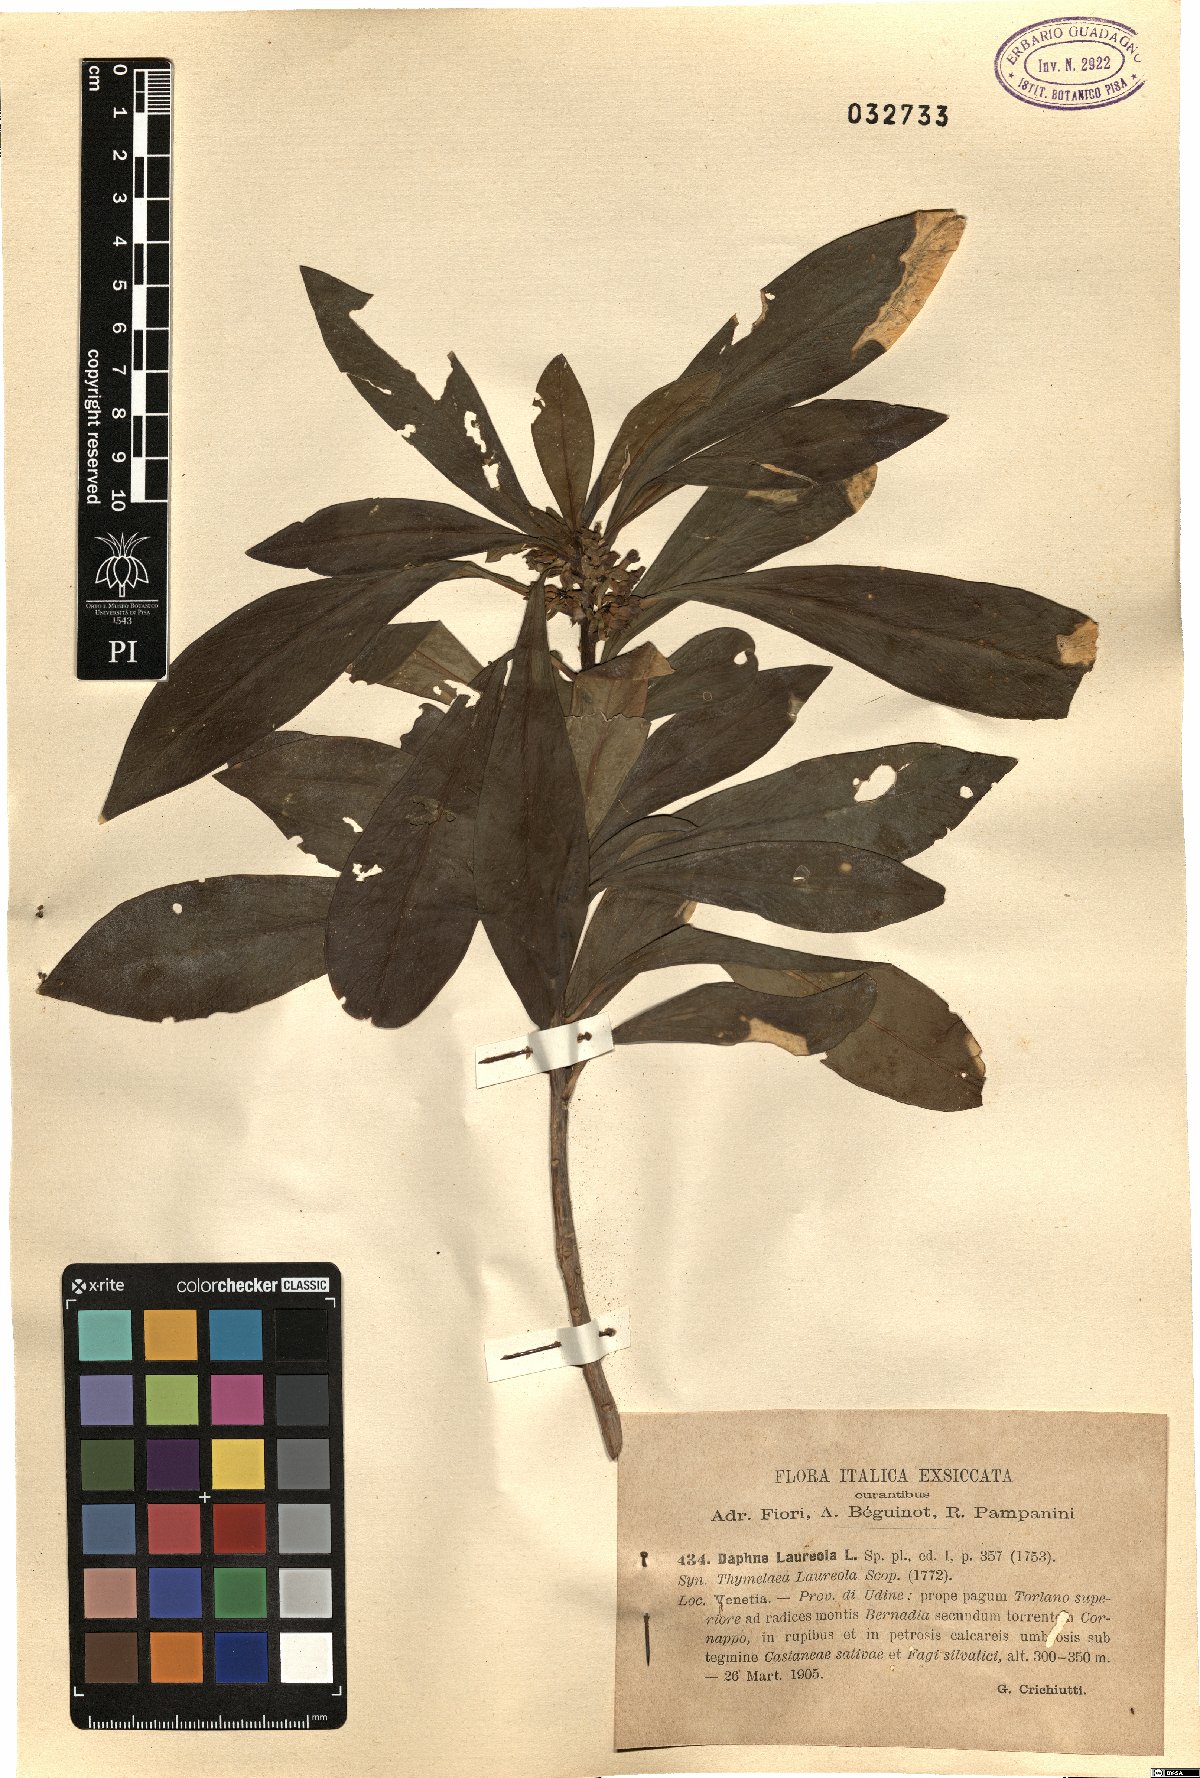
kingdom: Plantae
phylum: Tracheophyta
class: Magnoliopsida
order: Malvales
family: Thymelaeaceae
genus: Daphne
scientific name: Daphne laureola
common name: Spurge-laurel
